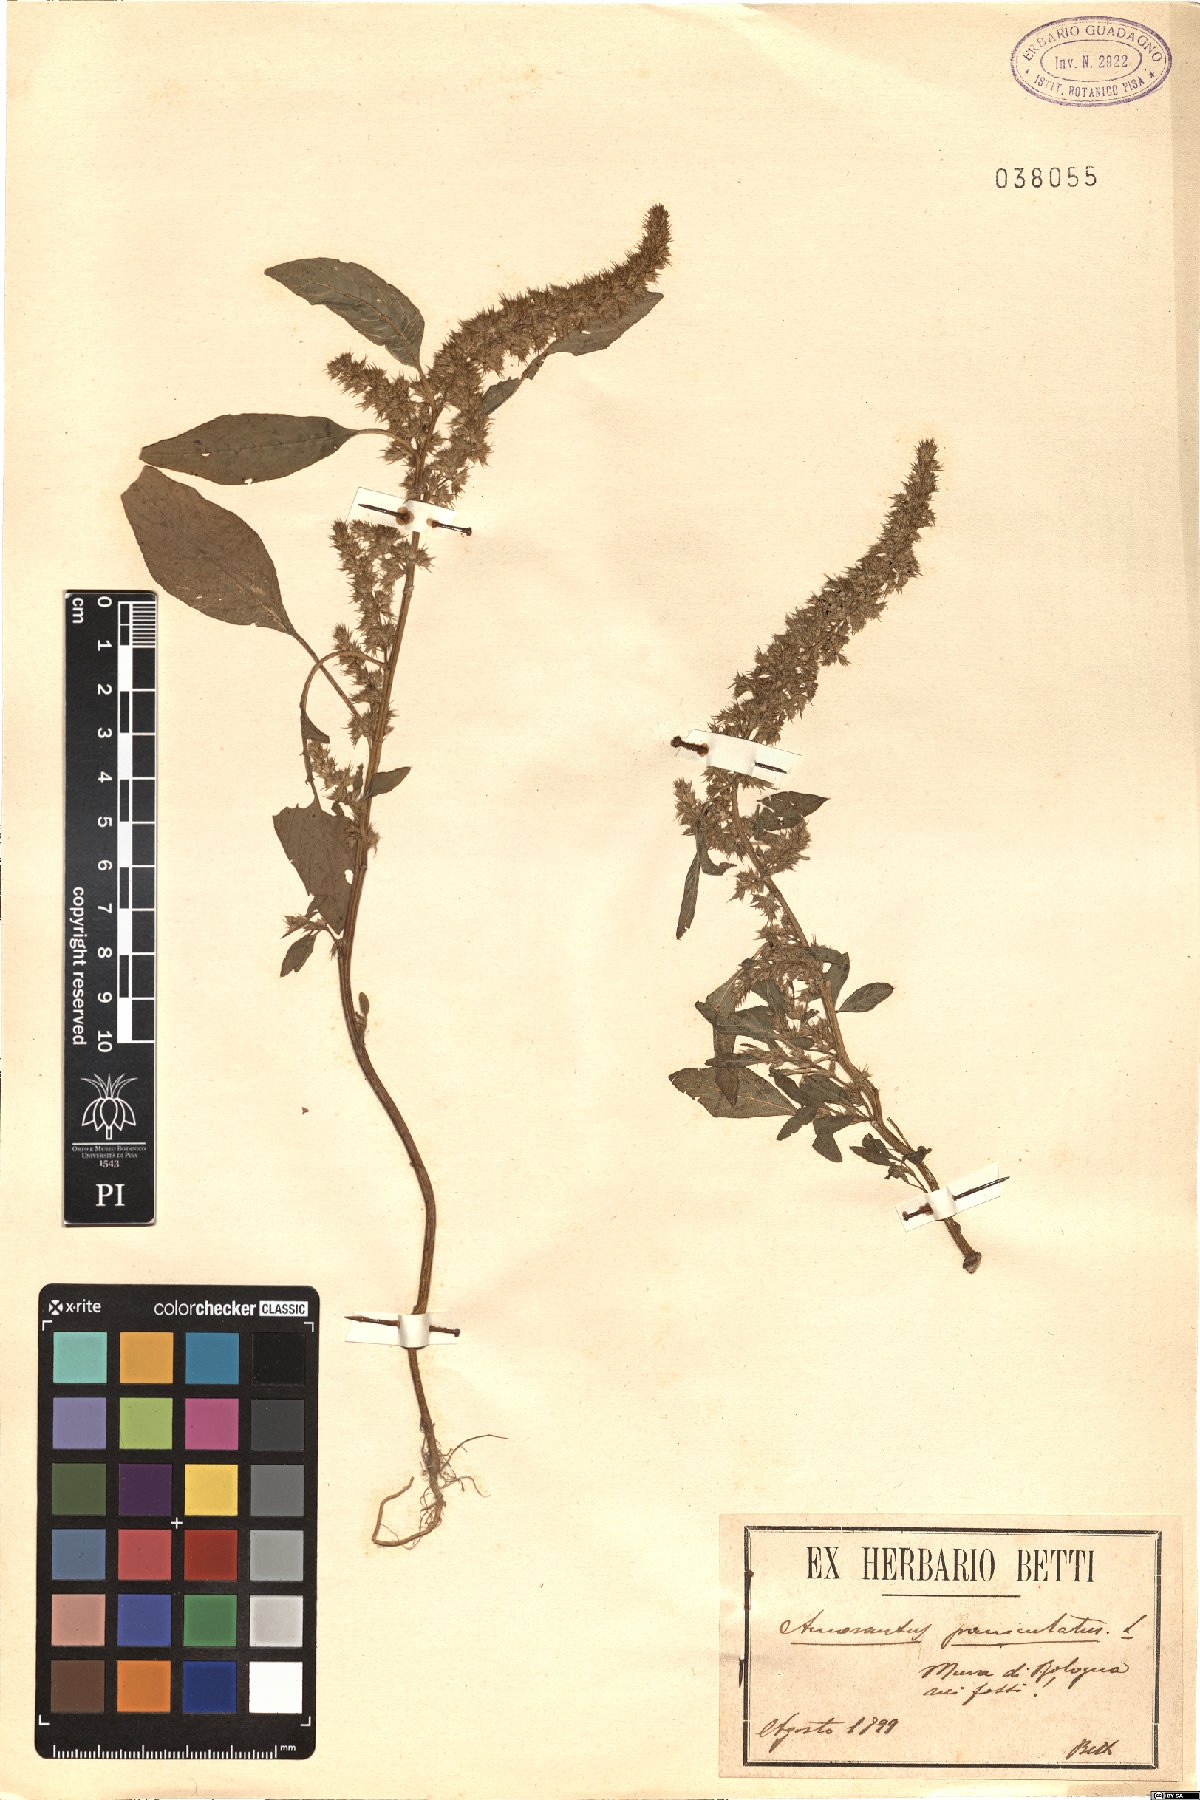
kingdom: Plantae
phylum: Tracheophyta
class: Magnoliopsida
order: Caryophyllales
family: Amaranthaceae
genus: Amaranthus
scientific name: Amaranthus cruentus
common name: Purple amaranth
